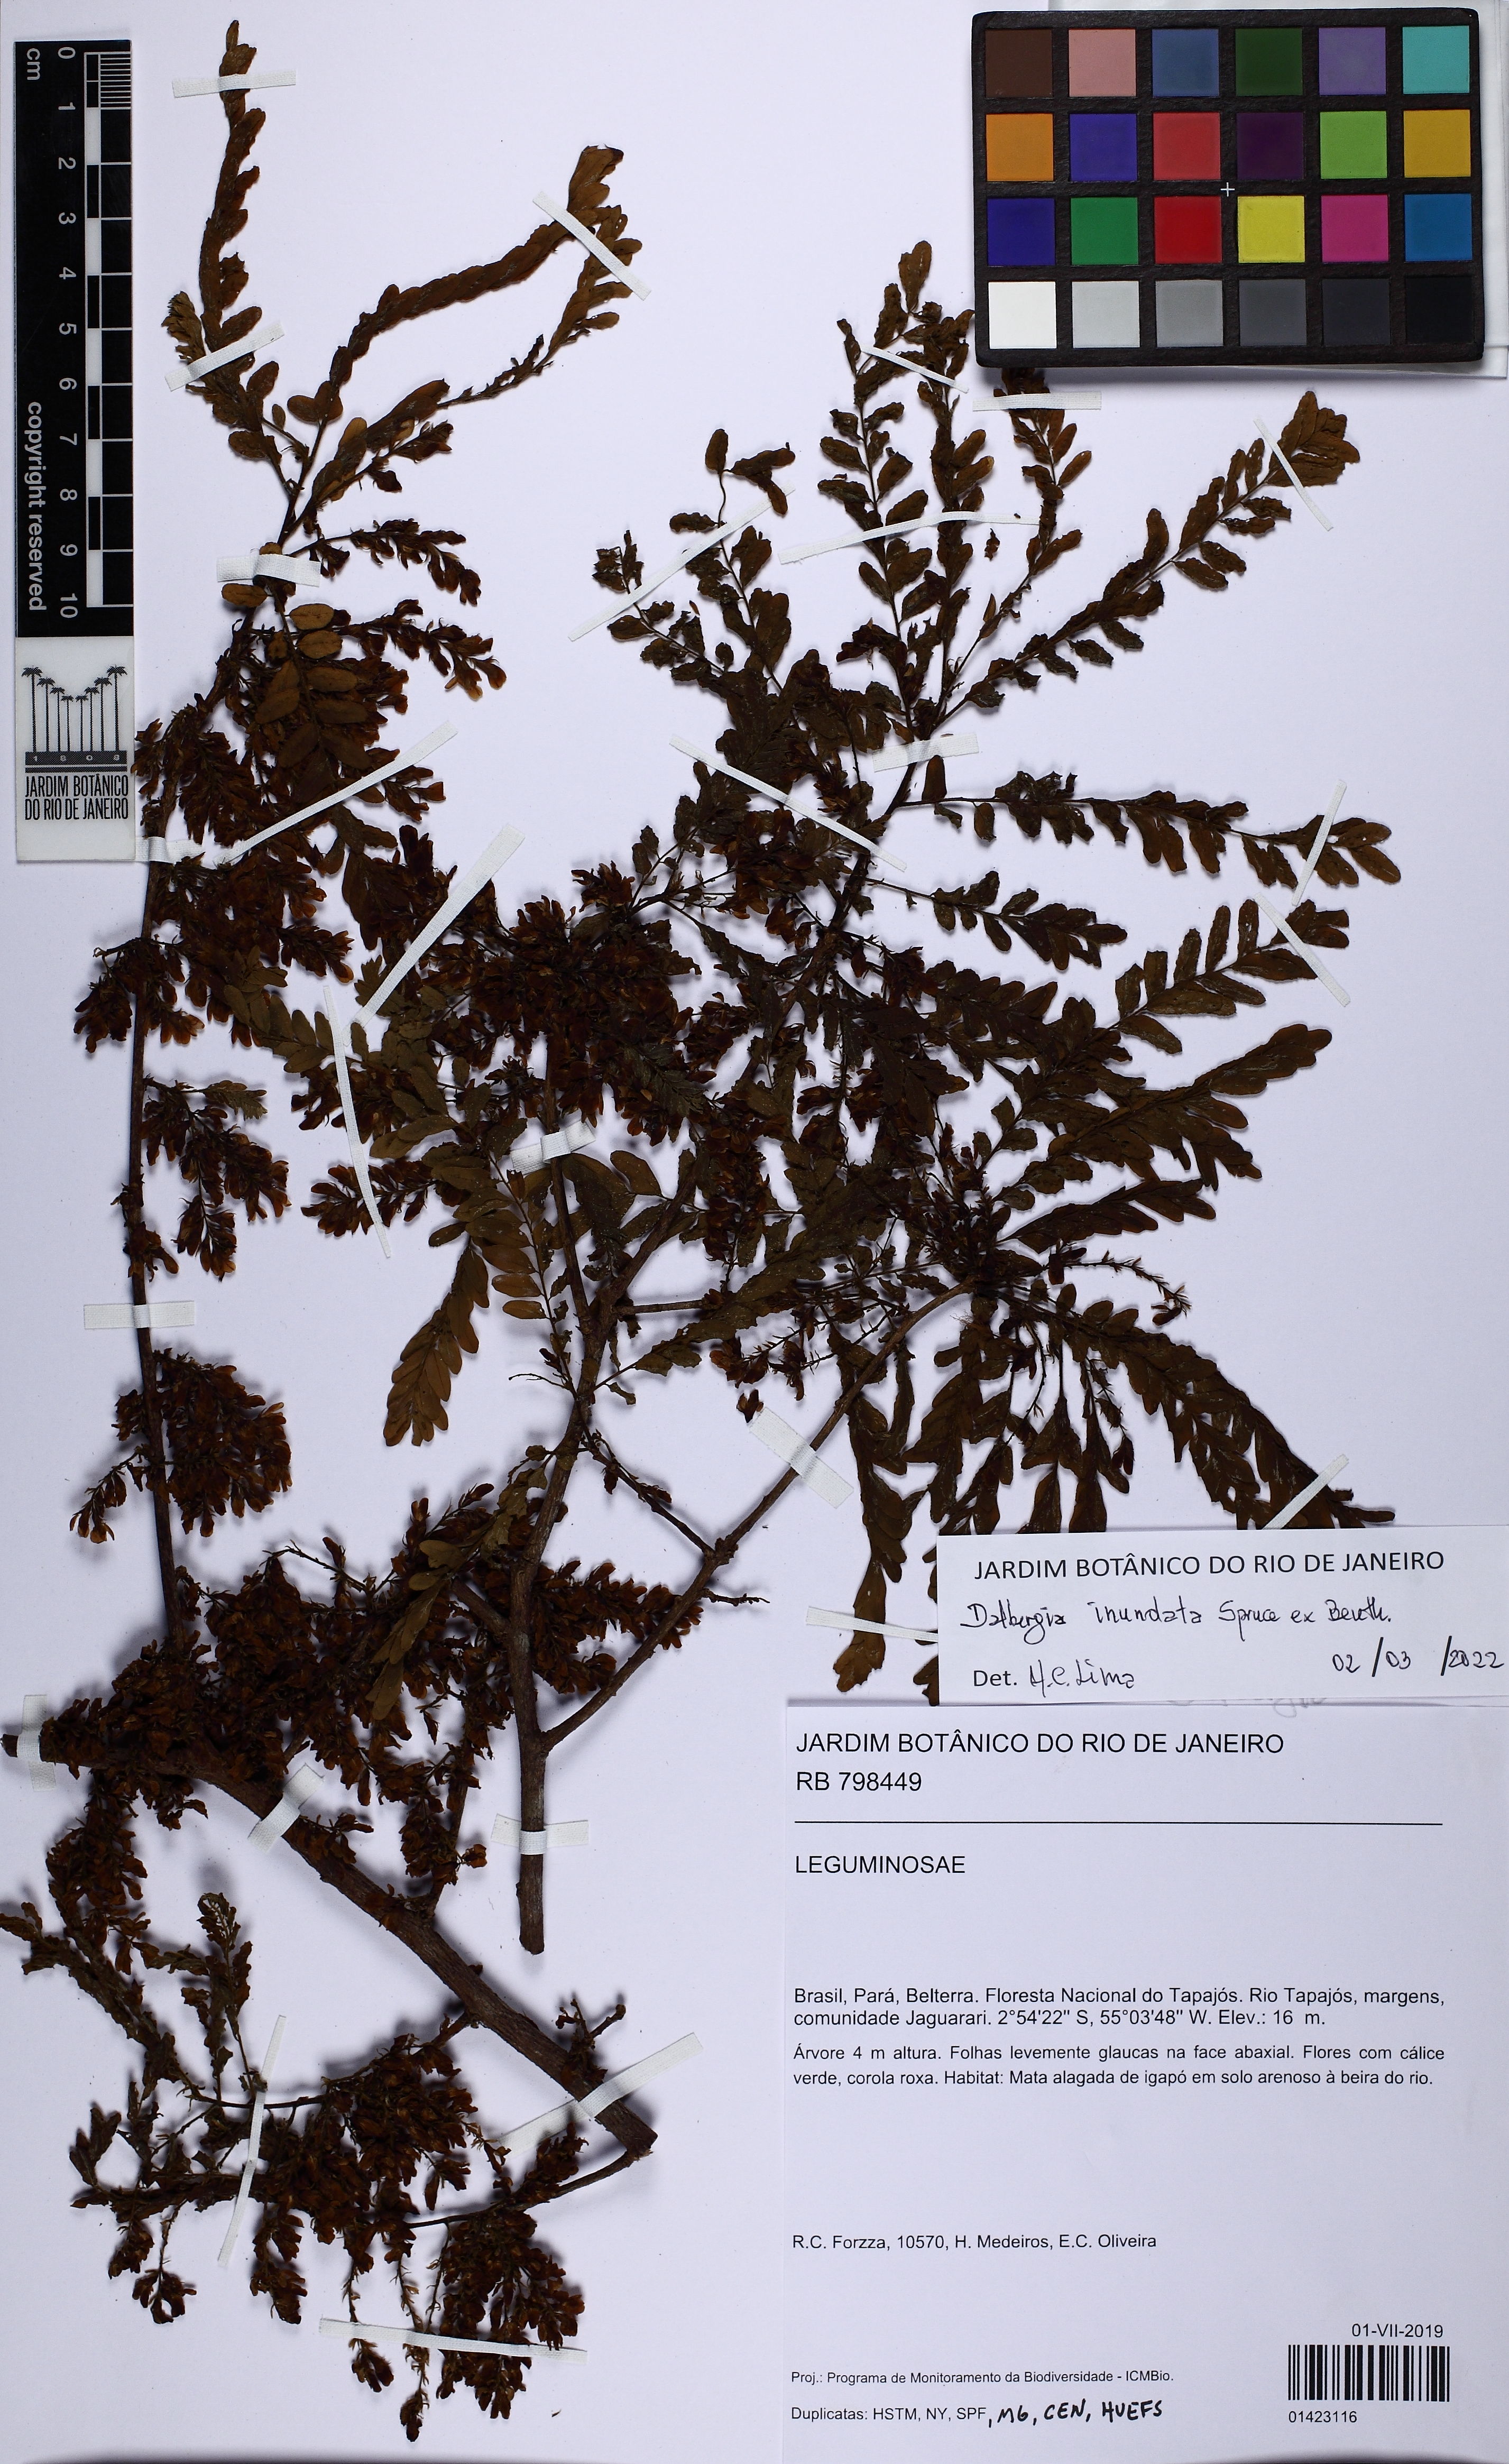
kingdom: Plantae
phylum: Tracheophyta
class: Magnoliopsida
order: Fabales
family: Fabaceae
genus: Dalbergia
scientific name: Dalbergia inundata
